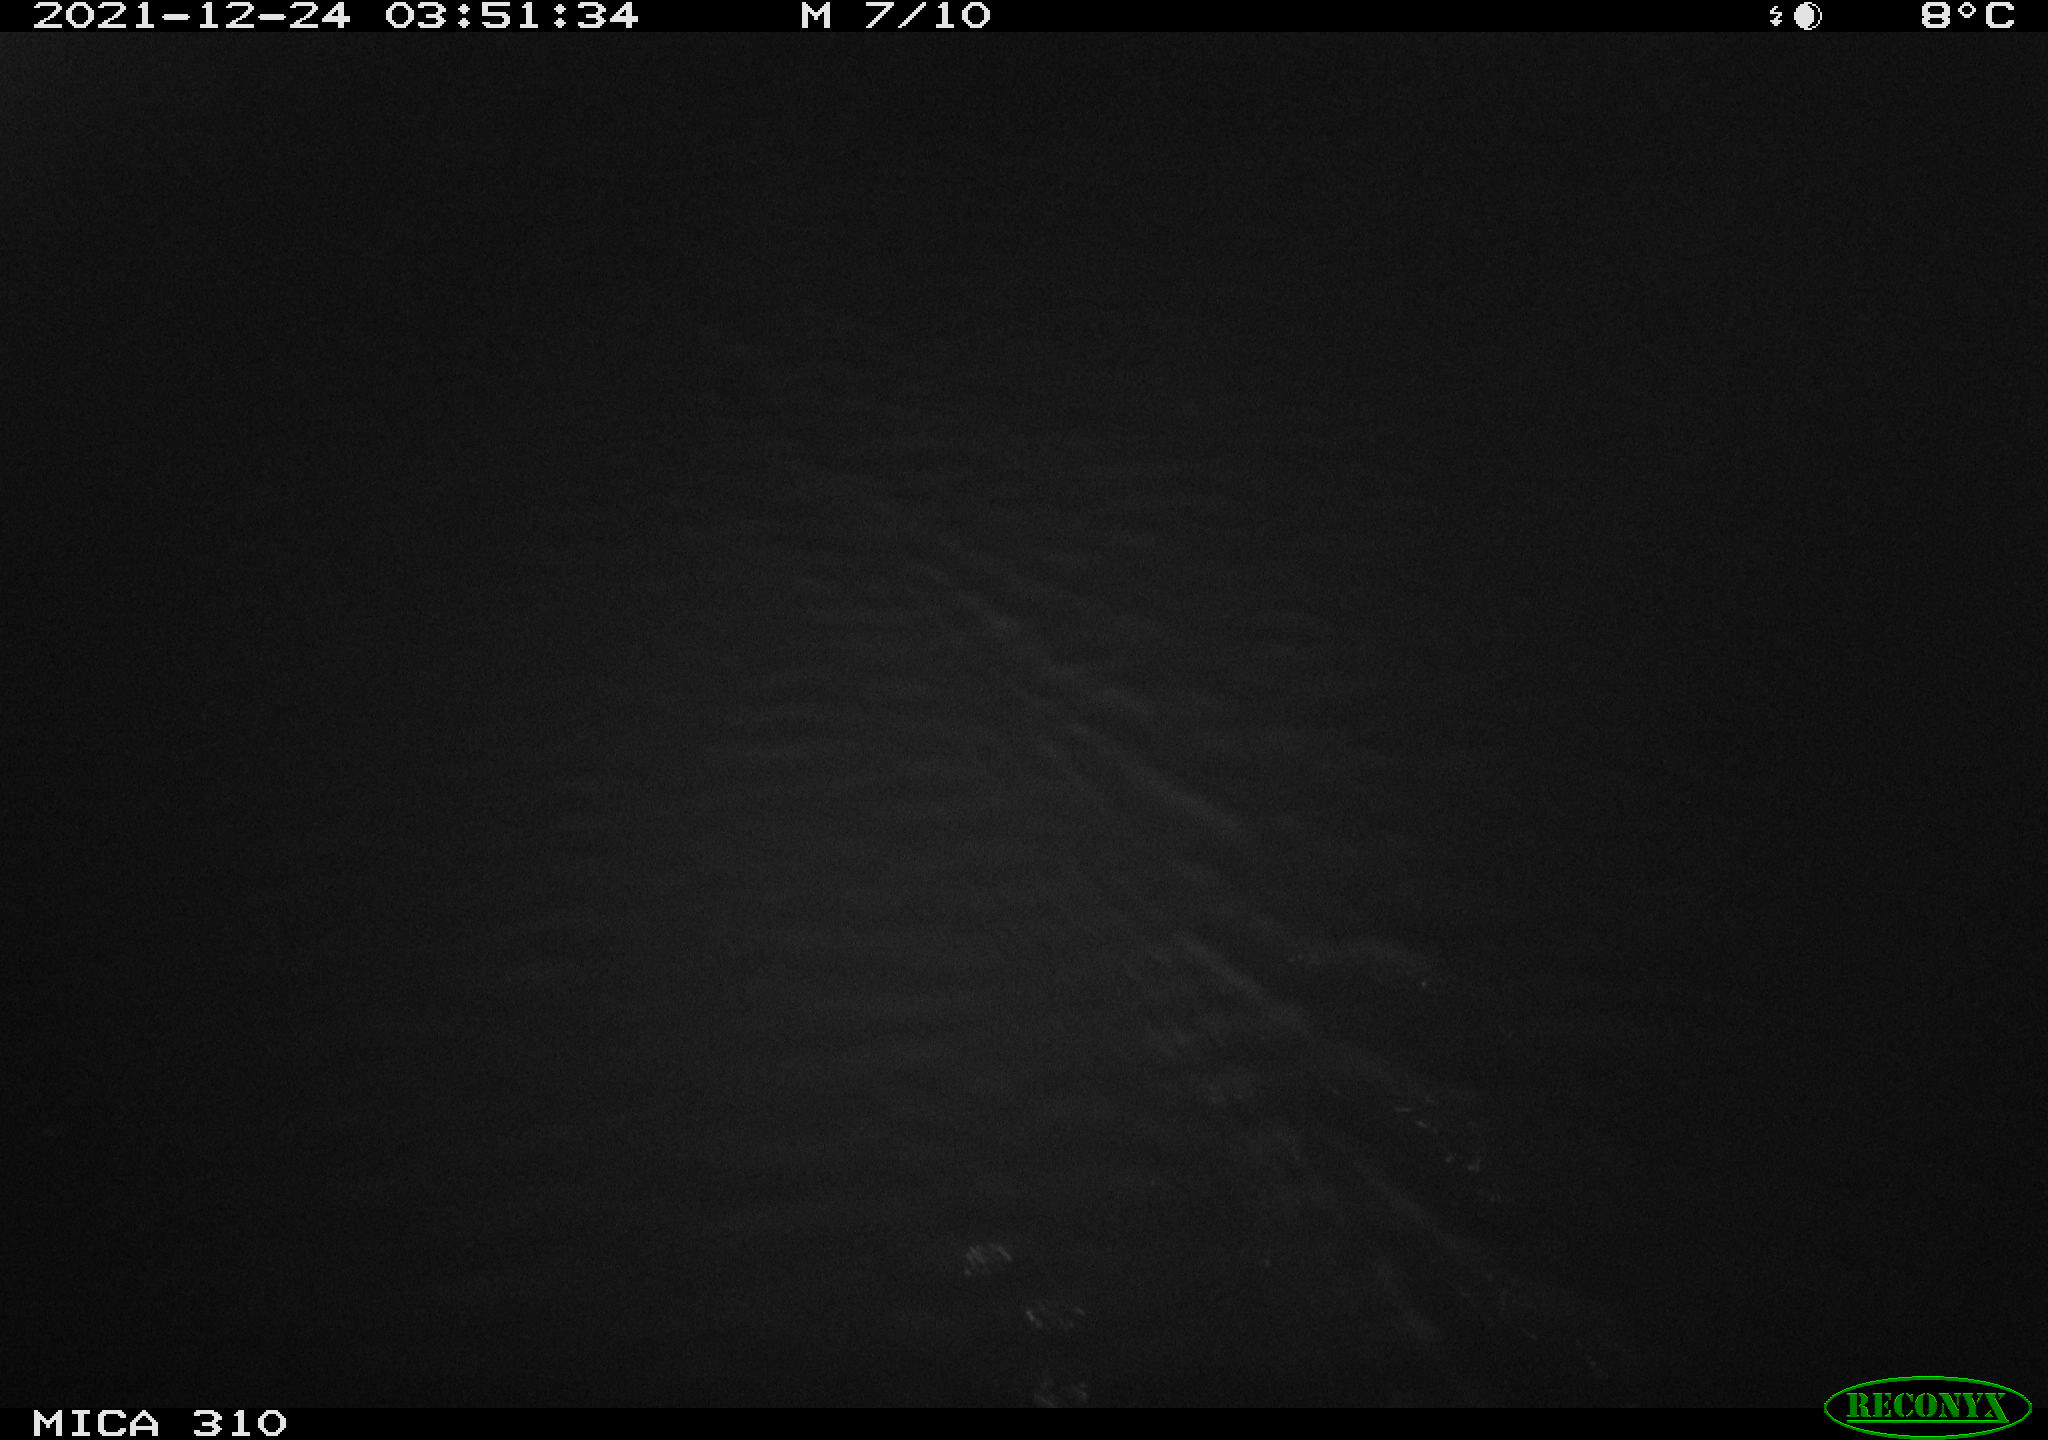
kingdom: Animalia
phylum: Chordata
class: Aves
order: Anseriformes
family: Anatidae
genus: Anas
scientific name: Anas platyrhynchos
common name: Mallard
